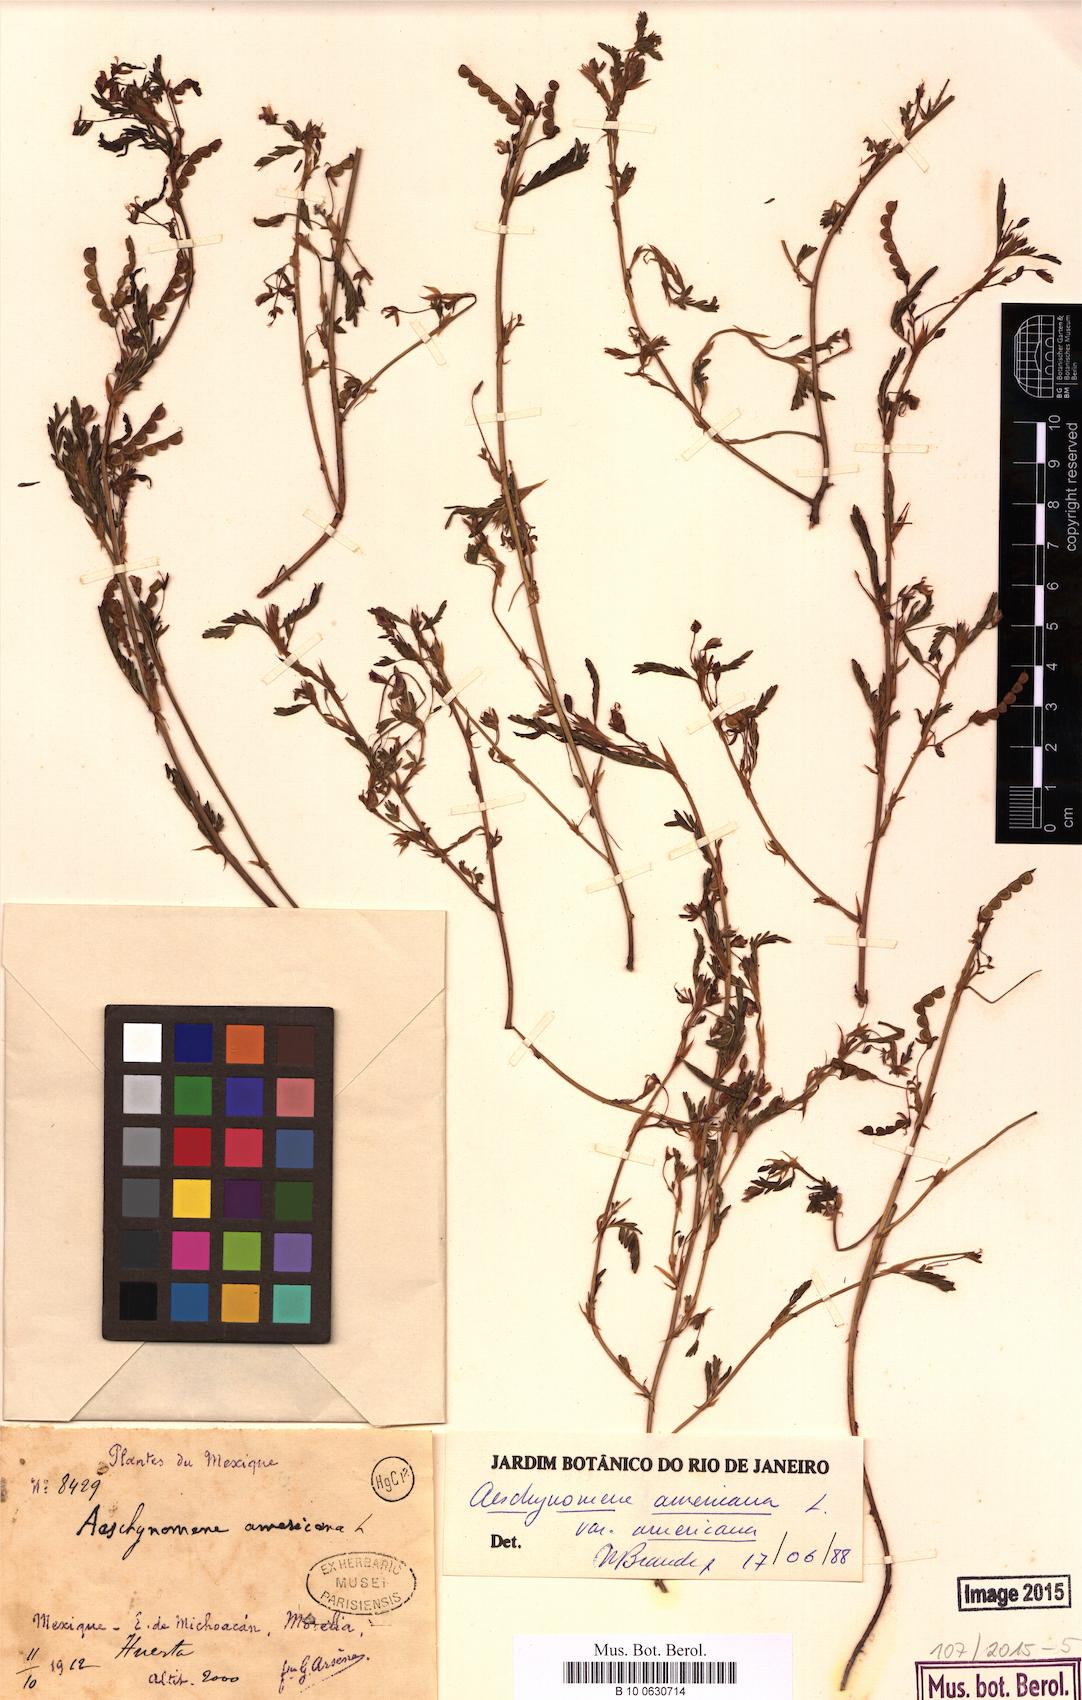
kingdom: Plantae
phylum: Tracheophyta
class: Magnoliopsida
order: Fabales
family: Fabaceae
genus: Aeschynomene
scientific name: Aeschynomene americana
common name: Joint-vetch
